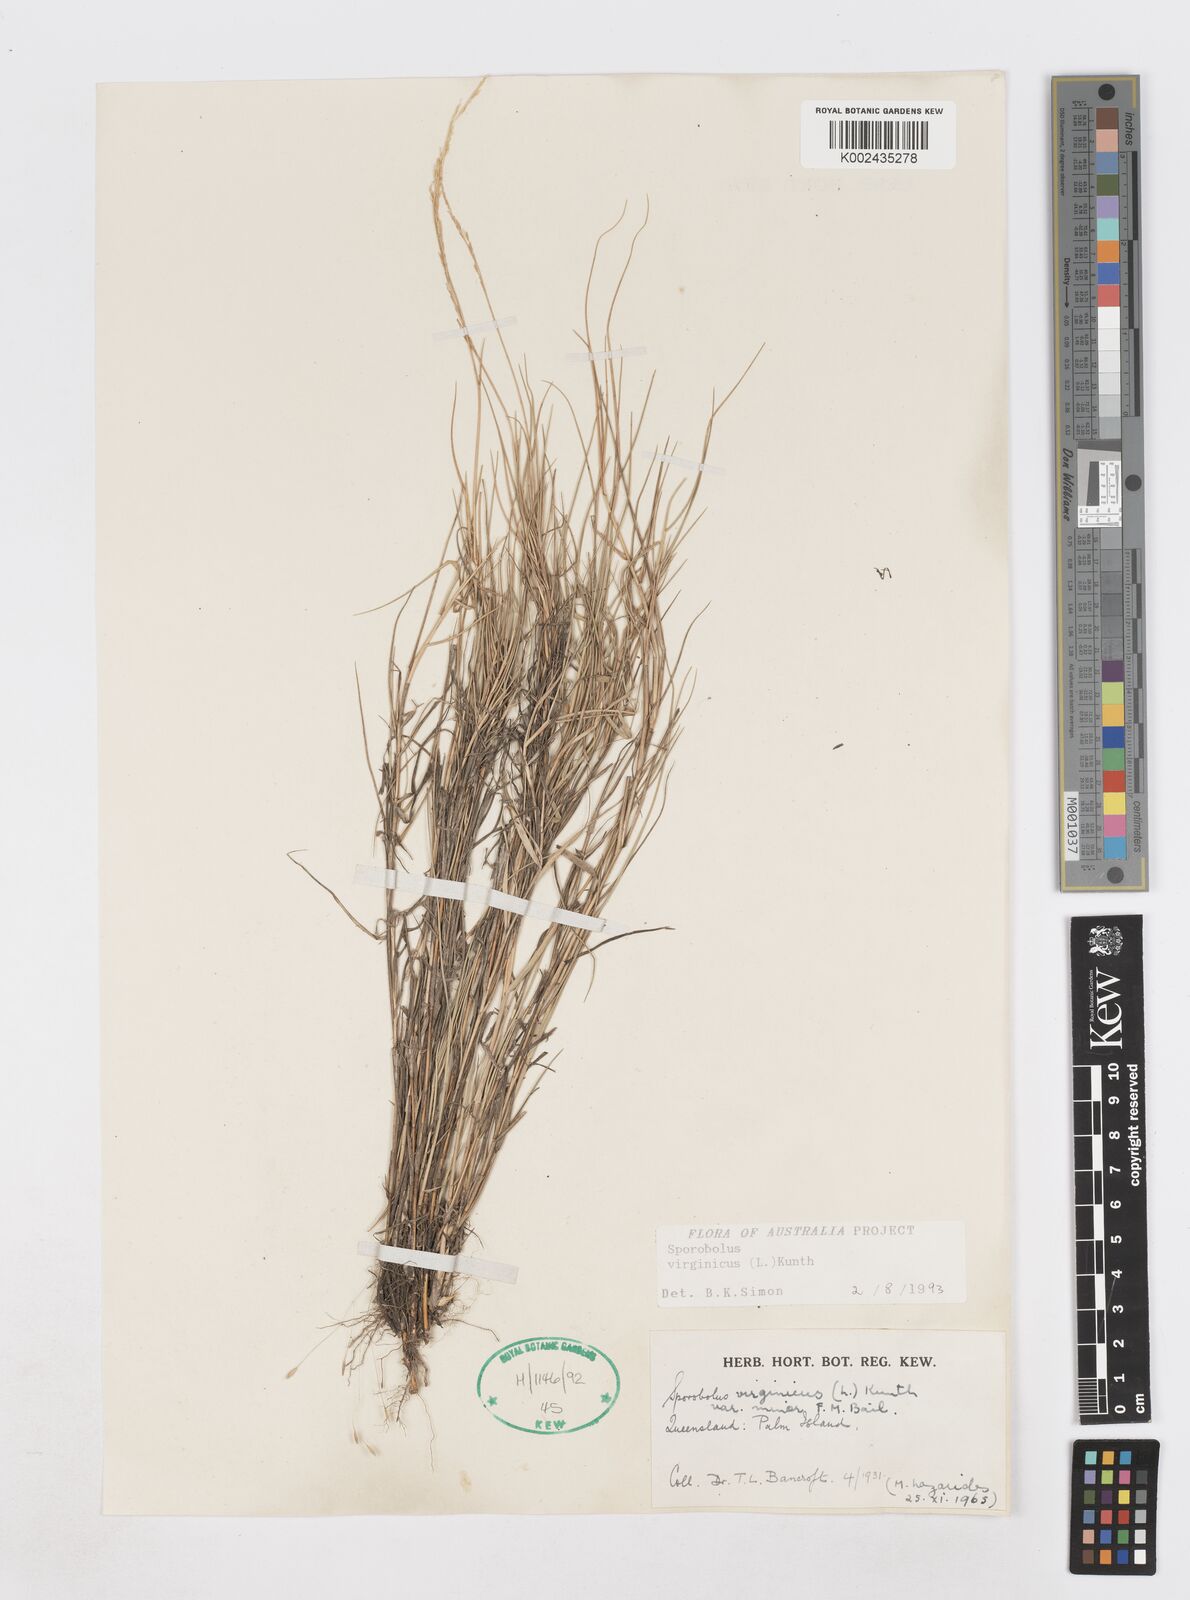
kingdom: Plantae
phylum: Tracheophyta
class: Liliopsida
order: Poales
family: Poaceae
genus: Sporobolus
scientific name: Sporobolus virginicus
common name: Beach dropseed
